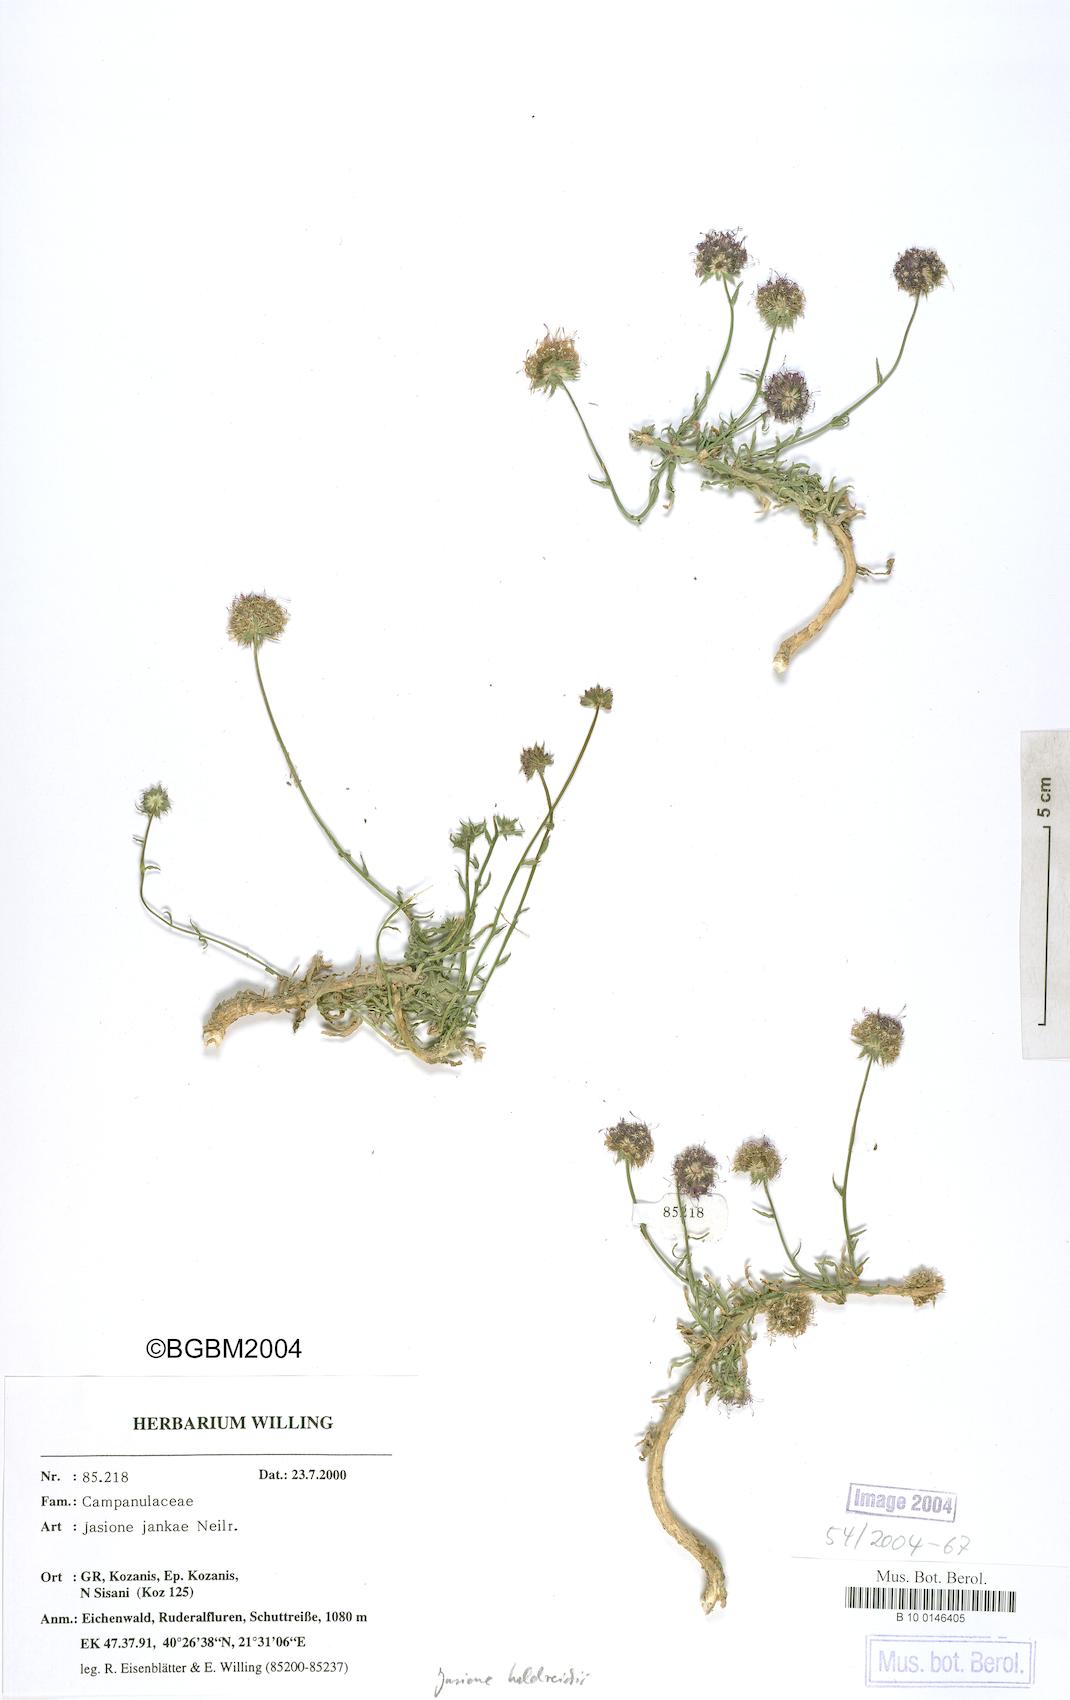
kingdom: Plantae
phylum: Tracheophyta
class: Magnoliopsida
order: Asterales
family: Campanulaceae
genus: Jasione
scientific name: Jasione heldreichii
